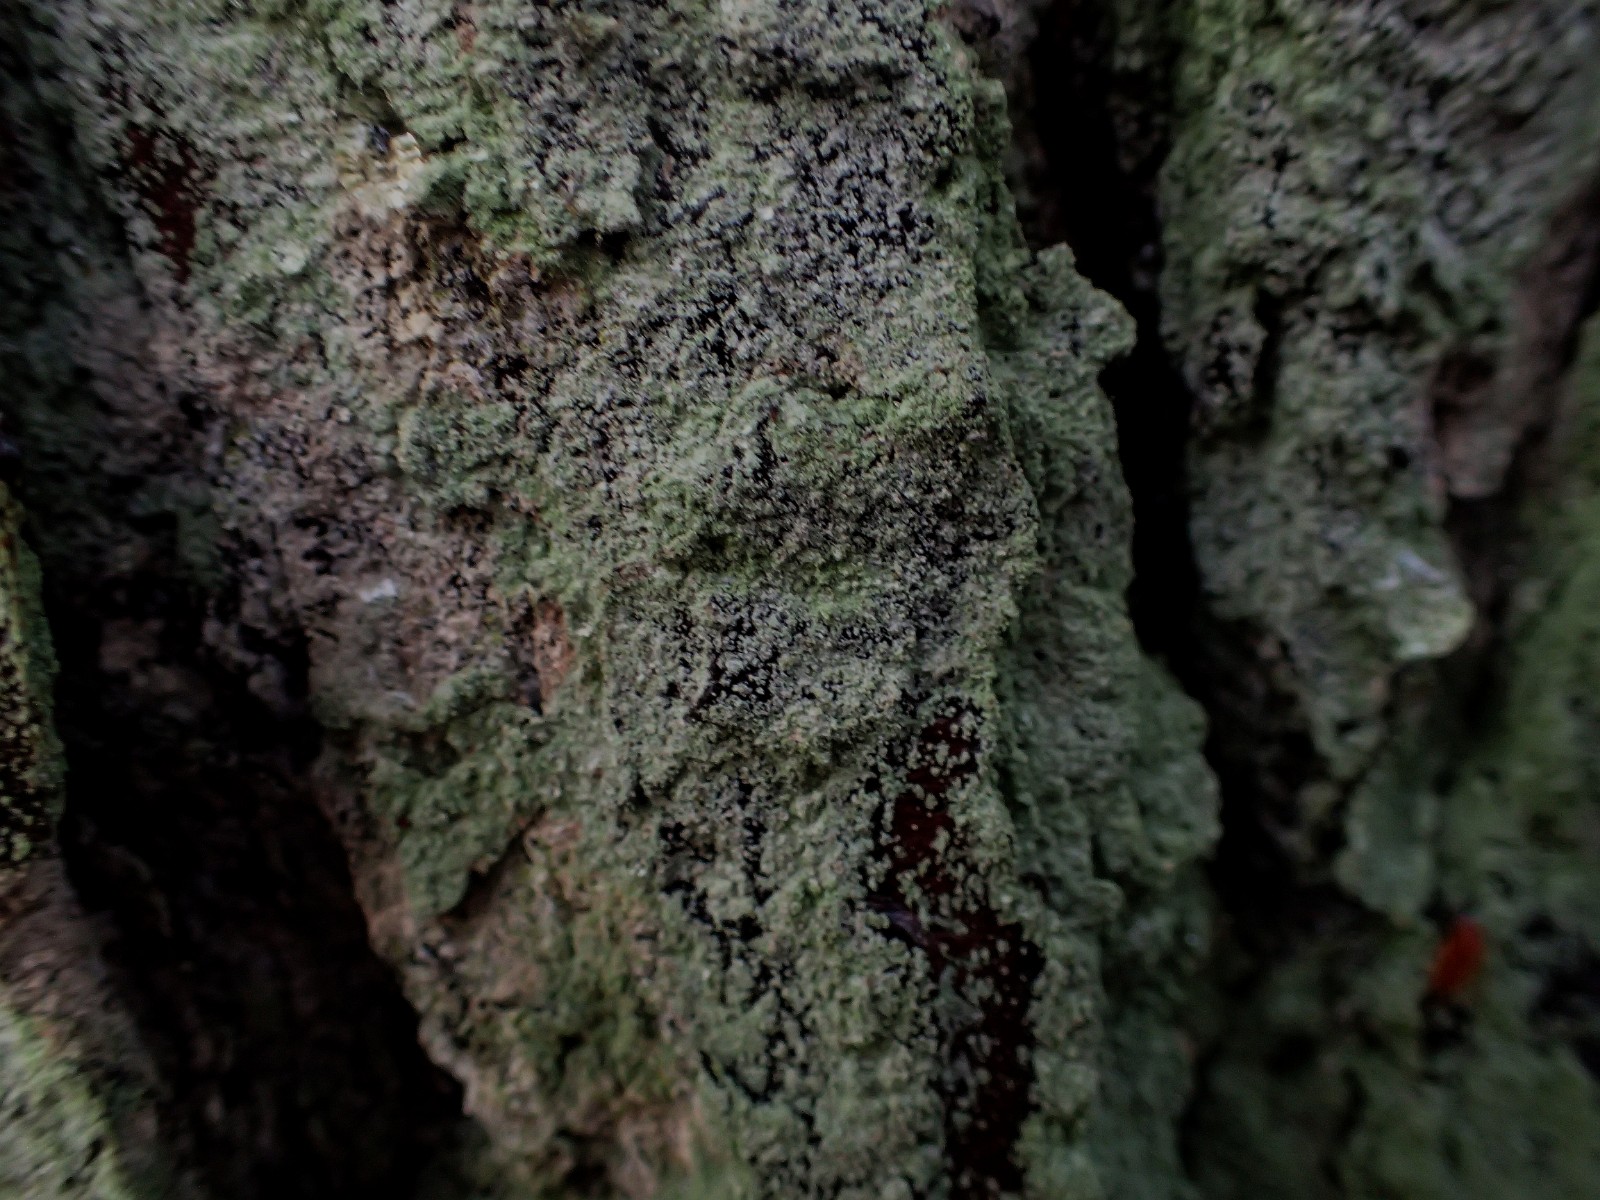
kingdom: Fungi
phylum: Ascomycota
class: Lecanoromycetes
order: Lecanorales
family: Stereocaulaceae
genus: Lepraria
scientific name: Lepraria incana
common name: almindelig støvlav
